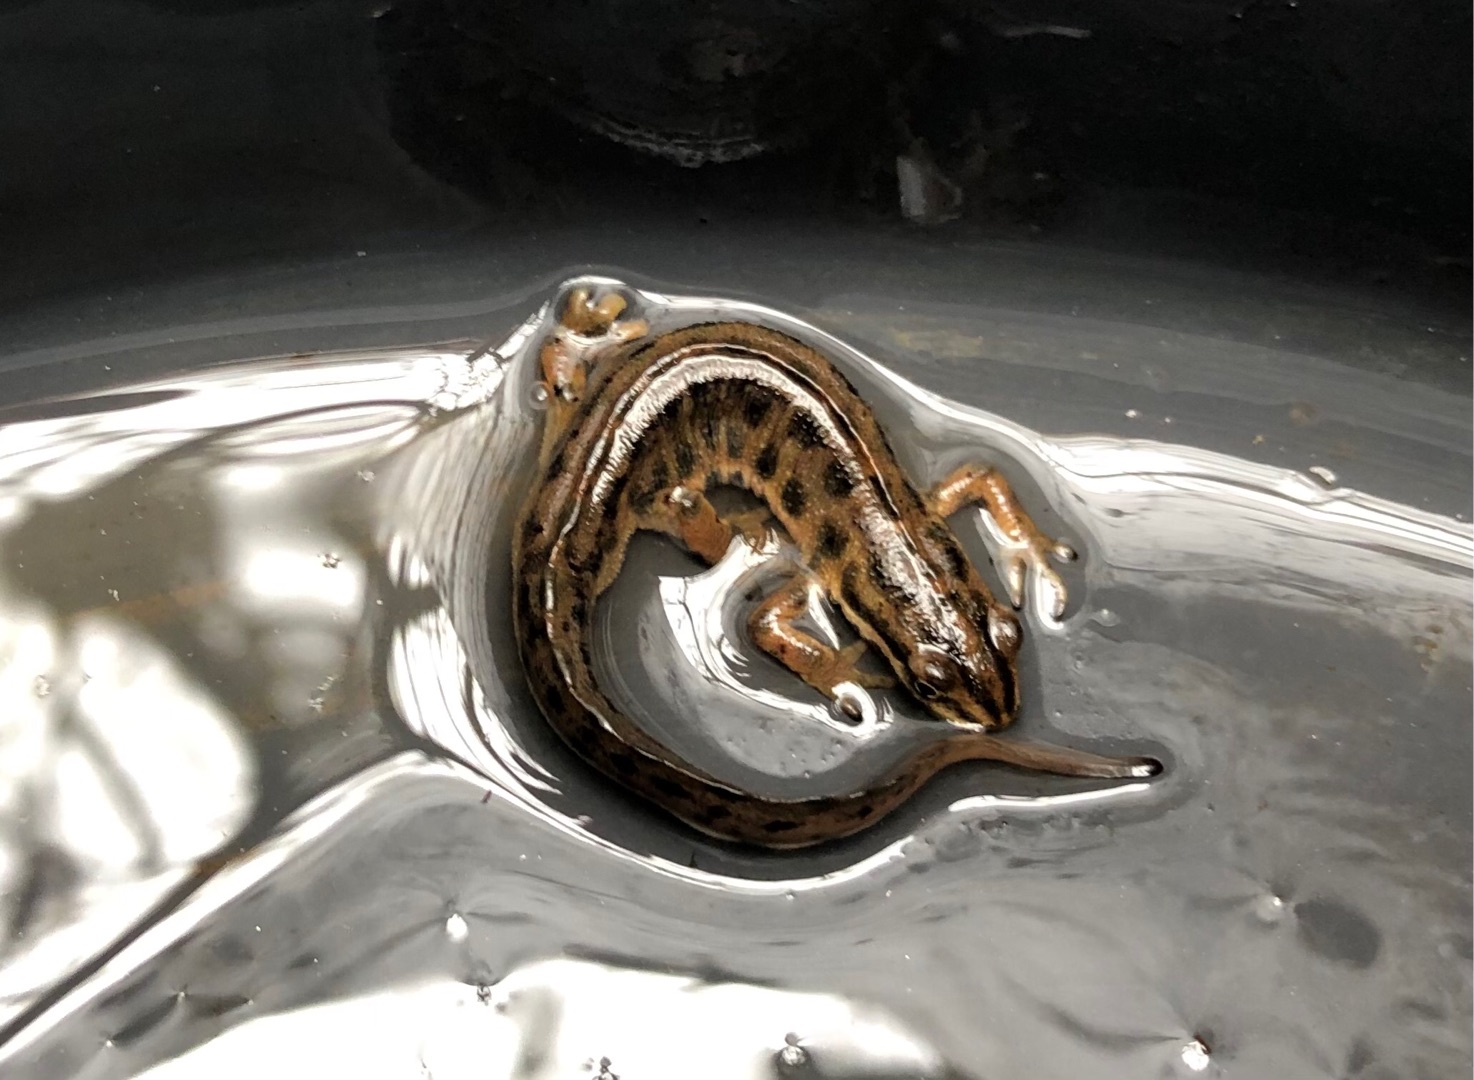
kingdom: Animalia
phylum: Chordata
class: Amphibia
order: Caudata
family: Salamandridae
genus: Lissotriton
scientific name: Lissotriton vulgaris
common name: Lille vandsalamander
